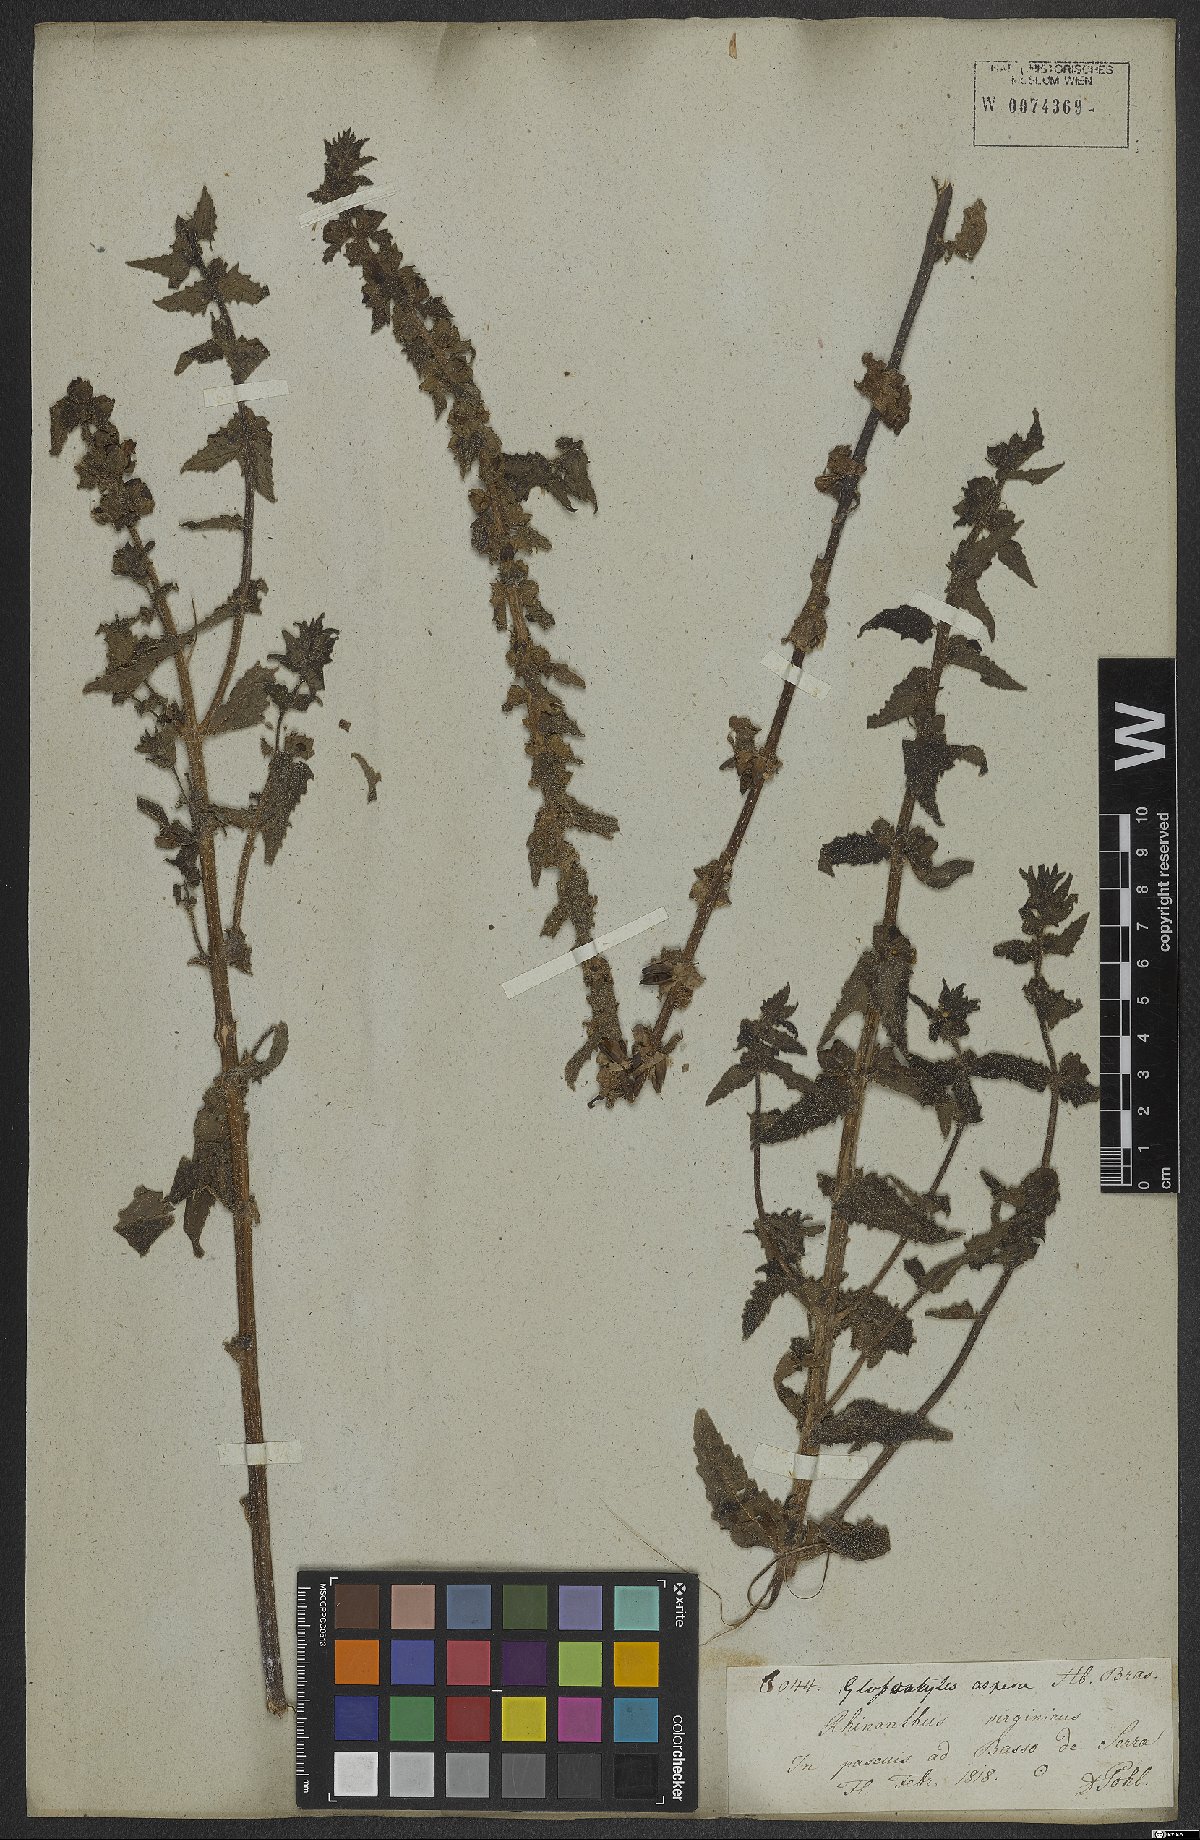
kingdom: Plantae
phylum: Tracheophyta
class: Magnoliopsida
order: Lamiales
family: Orobanchaceae
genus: Melasma
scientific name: Melasma melampyroides
